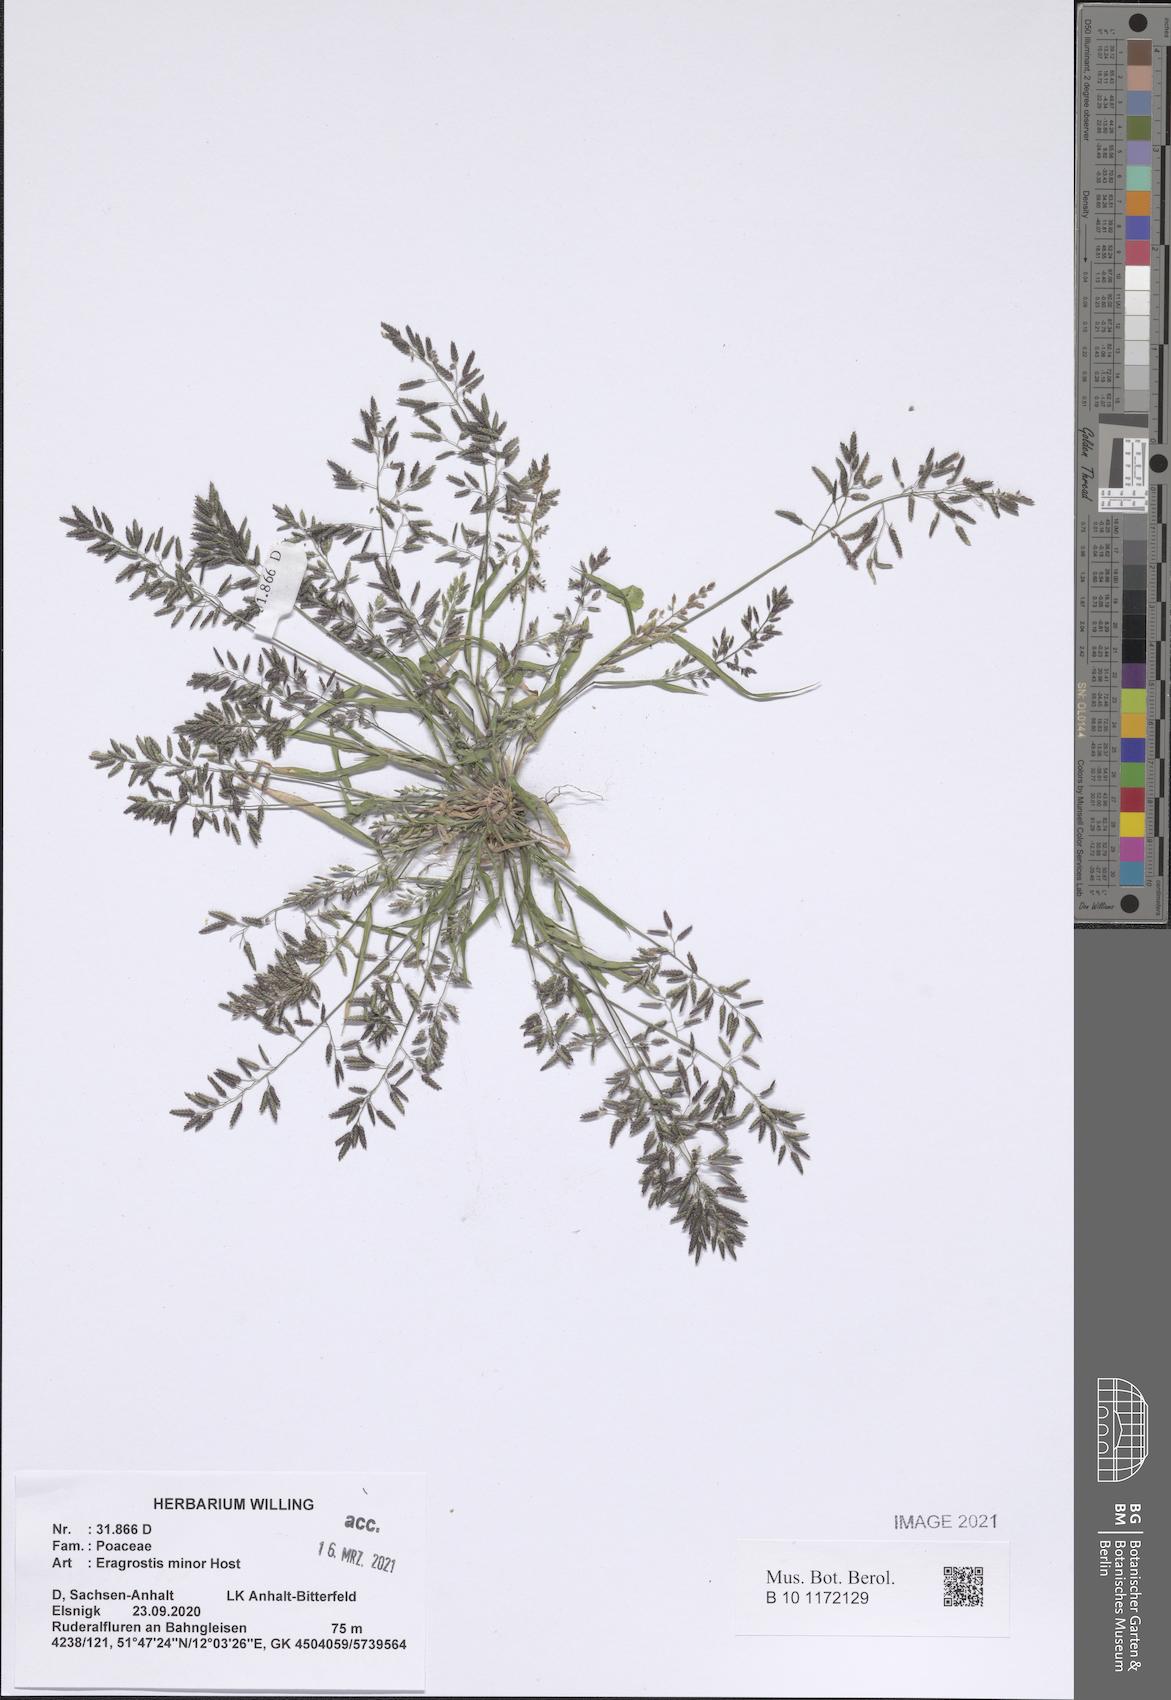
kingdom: Plantae
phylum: Tracheophyta
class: Liliopsida
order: Poales
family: Poaceae
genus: Eragrostis
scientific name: Eragrostis minor
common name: Small love-grass
